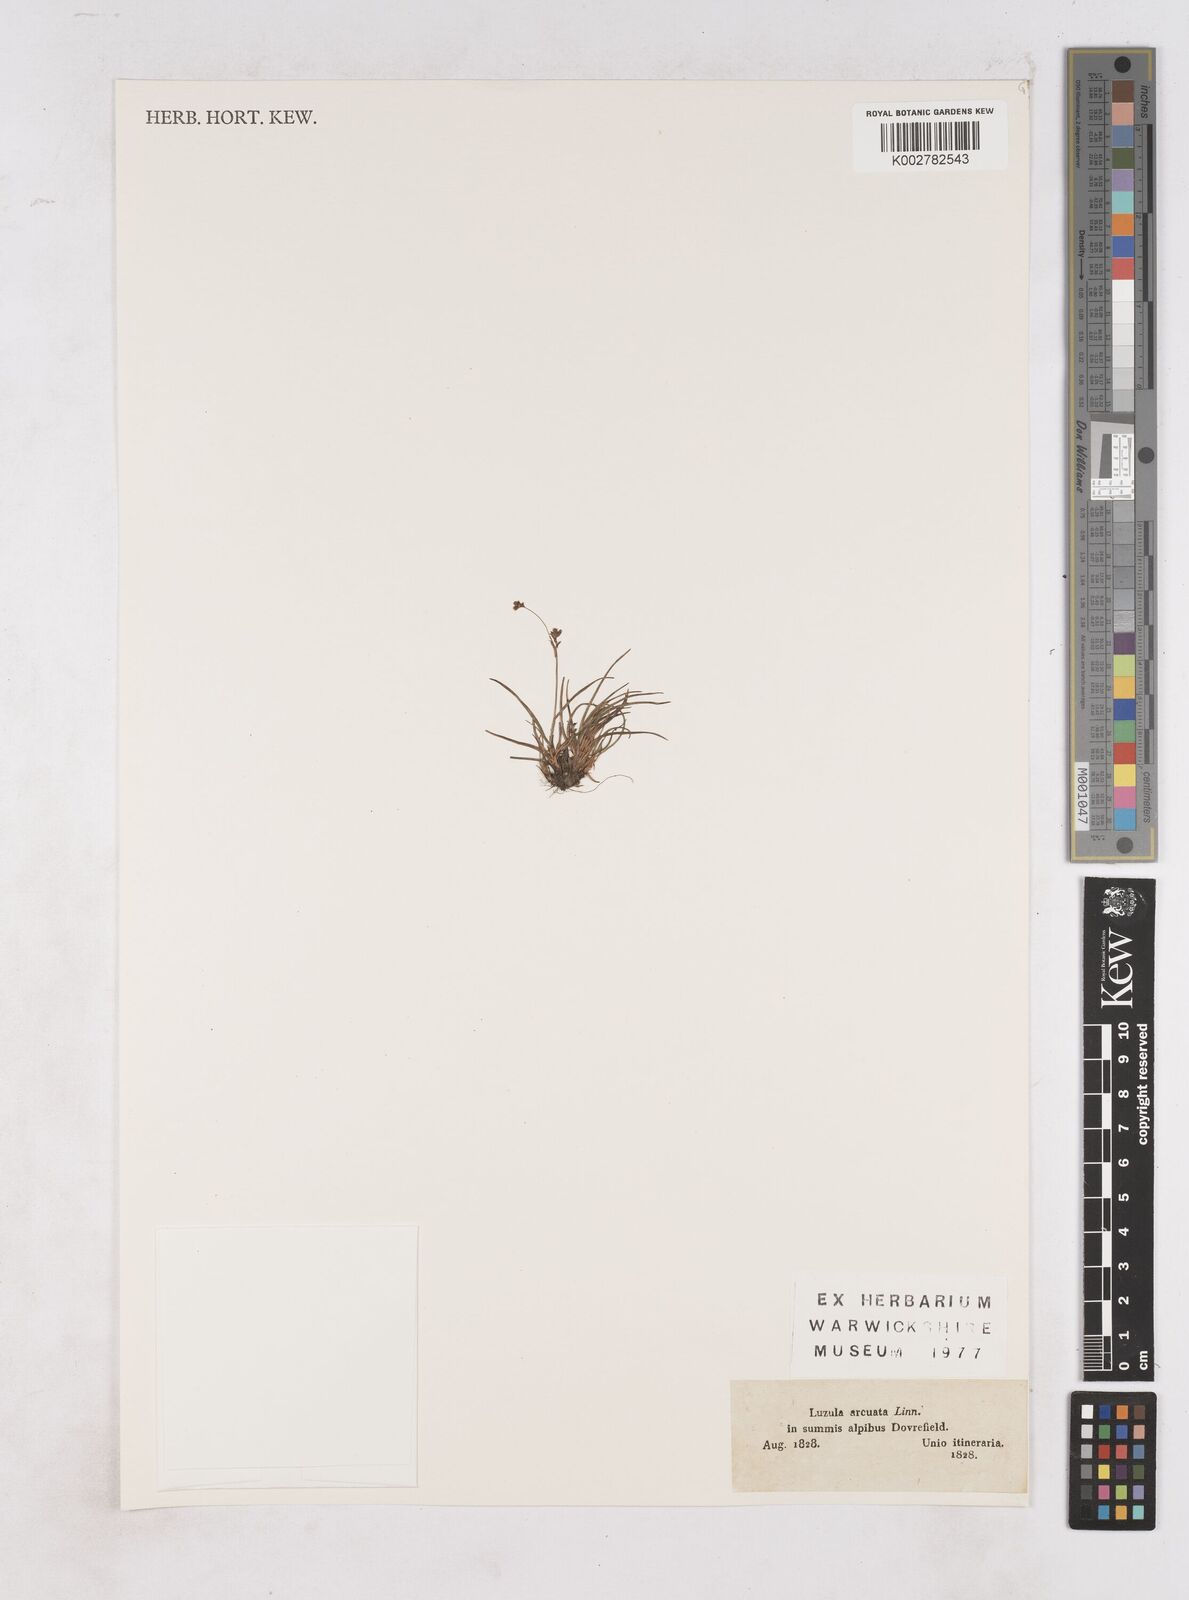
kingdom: Plantae
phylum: Tracheophyta
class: Liliopsida
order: Poales
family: Juncaceae
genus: Luzula
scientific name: Luzula arcuata
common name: Curved wood-rush
